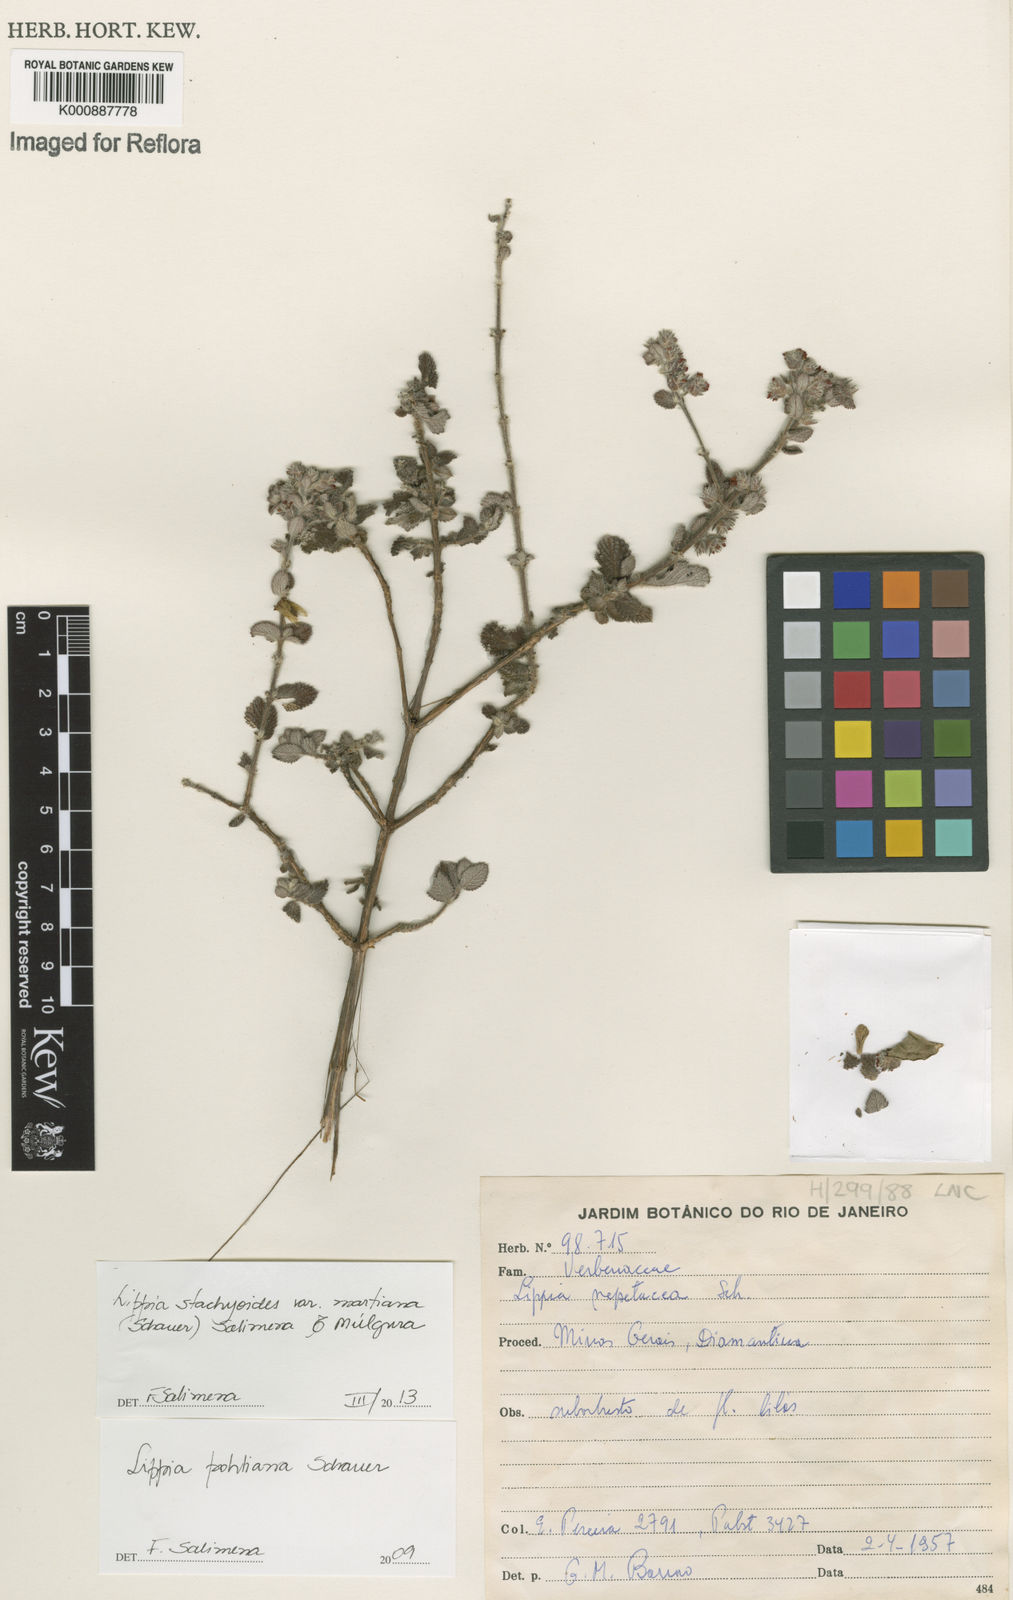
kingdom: Plantae
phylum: Tracheophyta
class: Magnoliopsida
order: Lamiales
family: Verbenaceae
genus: Lippia
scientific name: Lippia stachyoides
